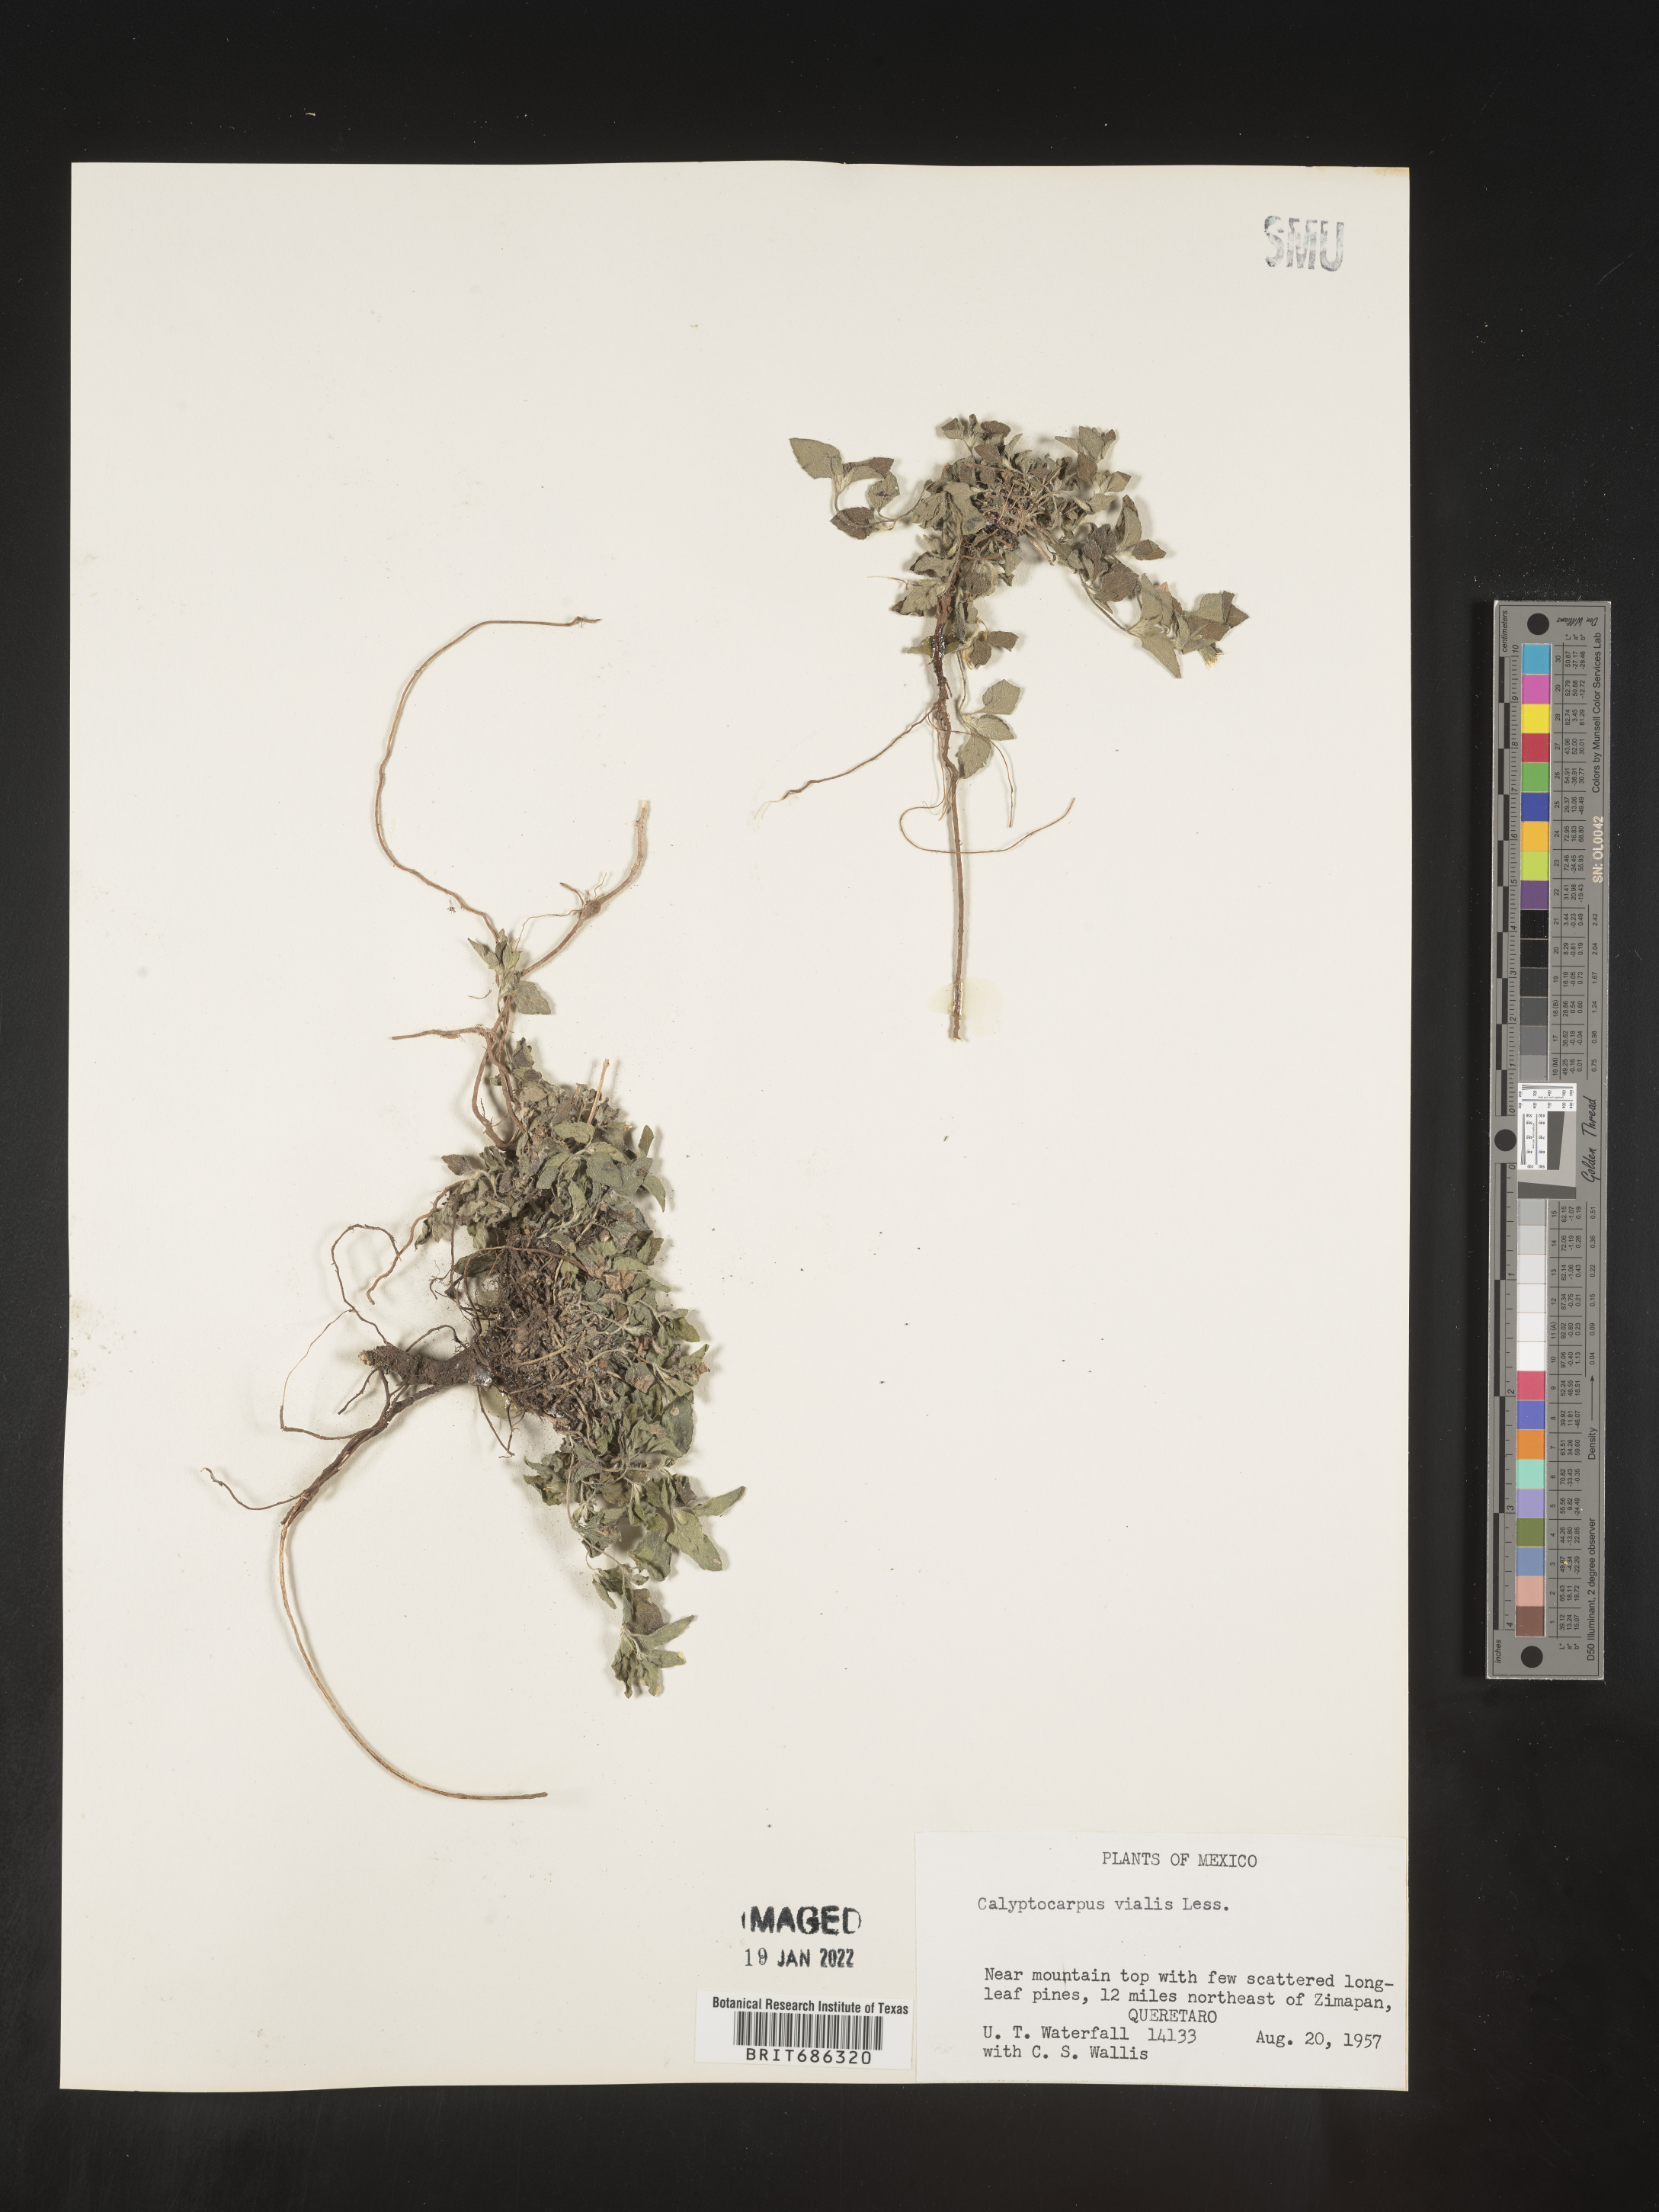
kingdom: Plantae
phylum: Tracheophyta
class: Magnoliopsida
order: Asterales
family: Asteraceae
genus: Calyptocarpus
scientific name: Calyptocarpus
